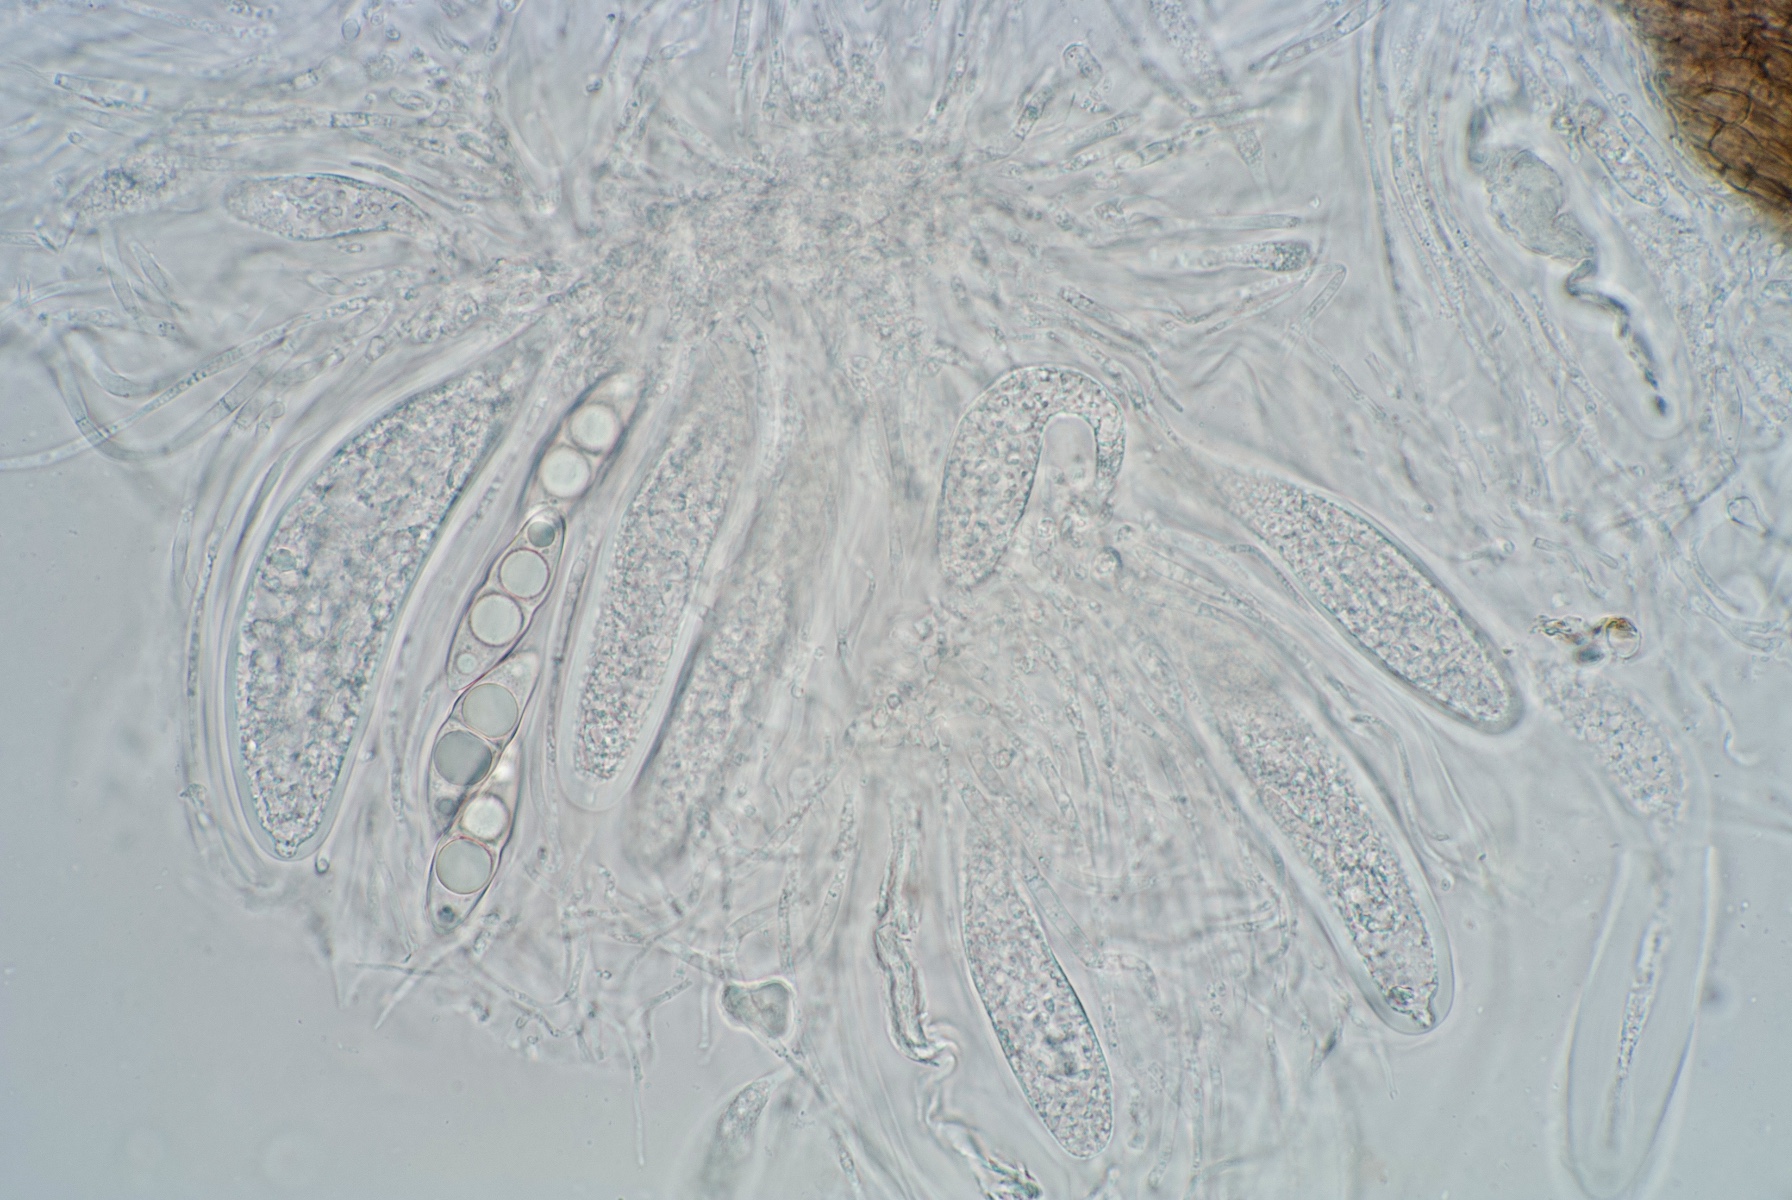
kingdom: Fungi
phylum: Ascomycota
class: Dothideomycetes
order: Pleosporales
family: Leptosphaeriaceae
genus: Leptosphaeria
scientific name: Leptosphaeria heterospora
